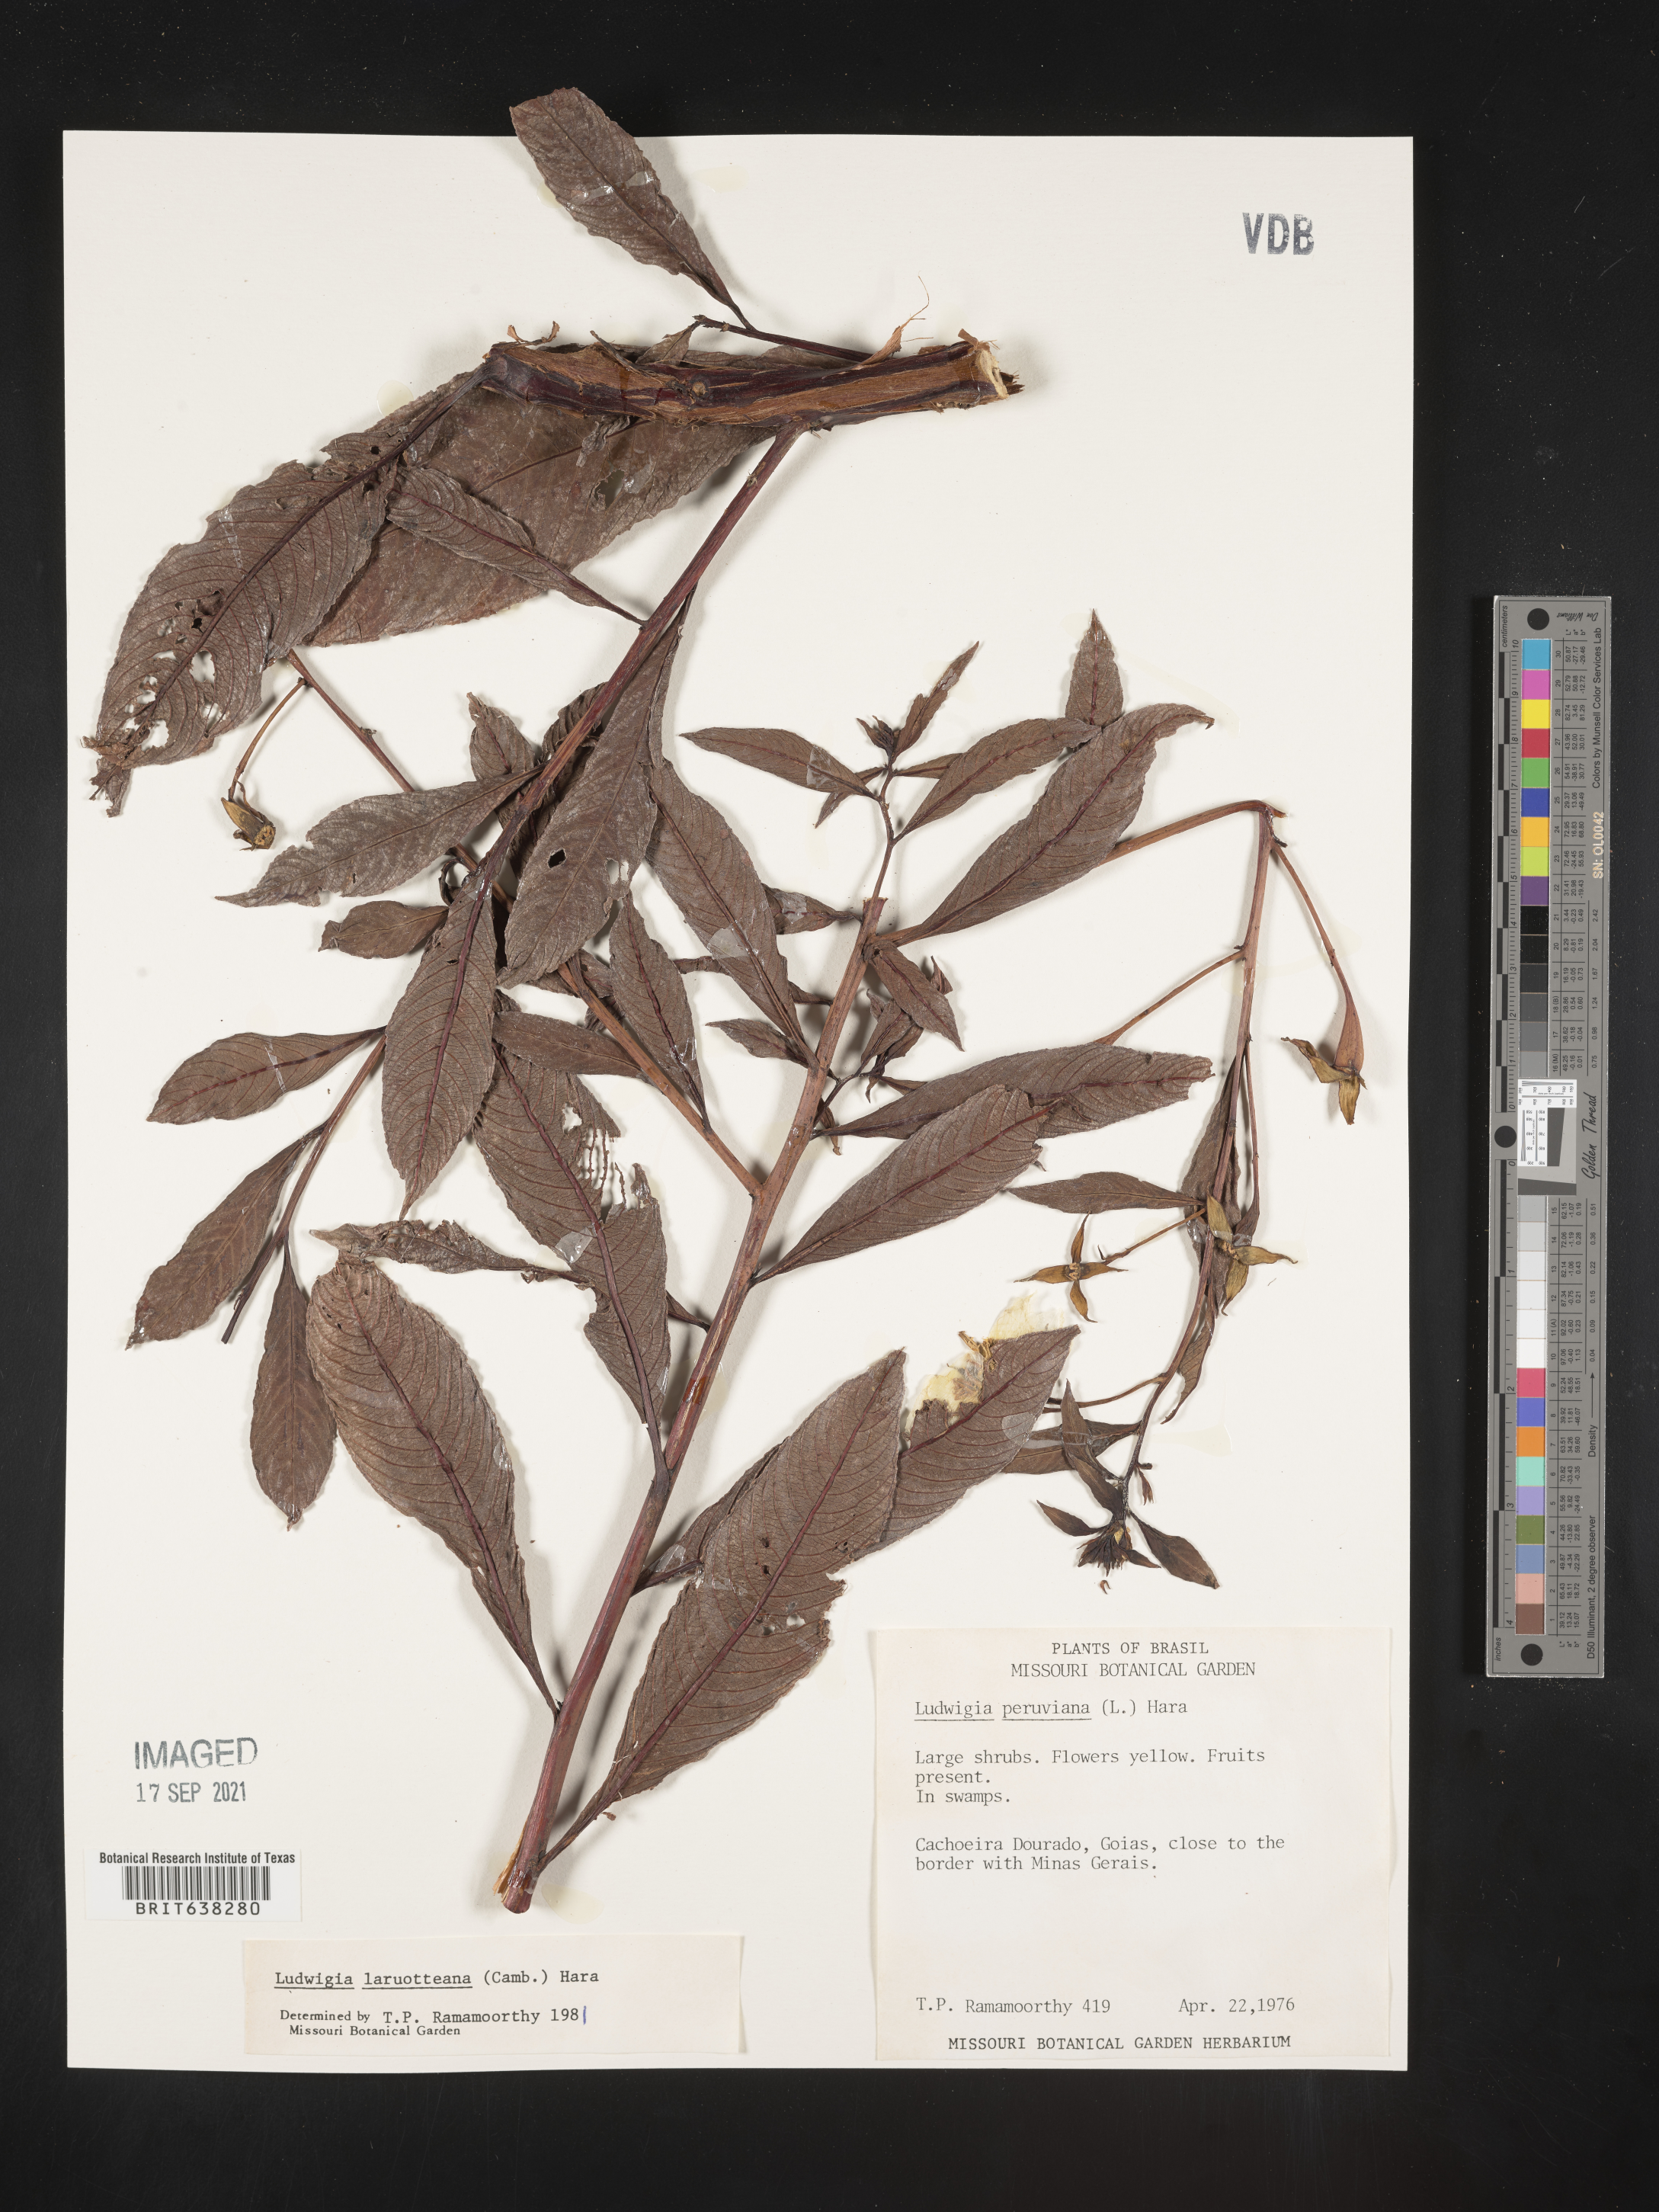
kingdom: Plantae
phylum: Tracheophyta
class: Magnoliopsida
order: Myrtales
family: Onagraceae
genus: Ludwigia
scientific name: Ludwigia
